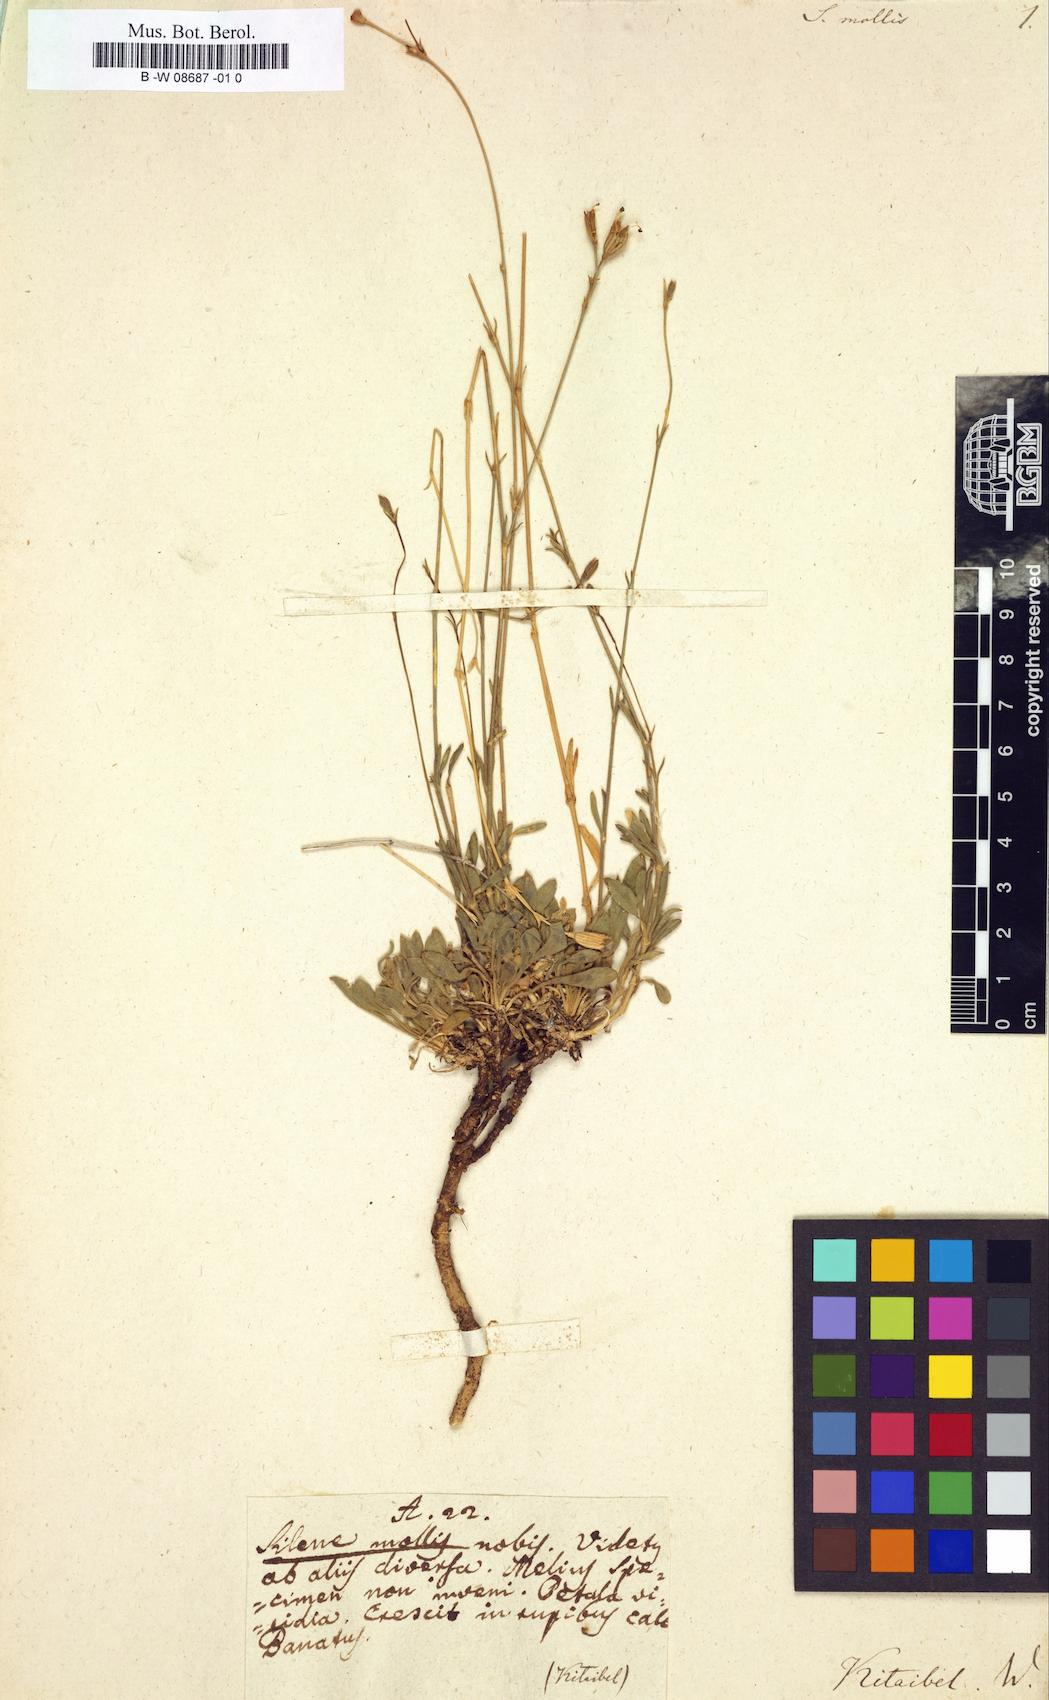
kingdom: Plantae
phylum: Tracheophyta
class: Magnoliopsida
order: Caryophyllales
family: Caryophyllaceae
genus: Silene
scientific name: Silene flavescens
